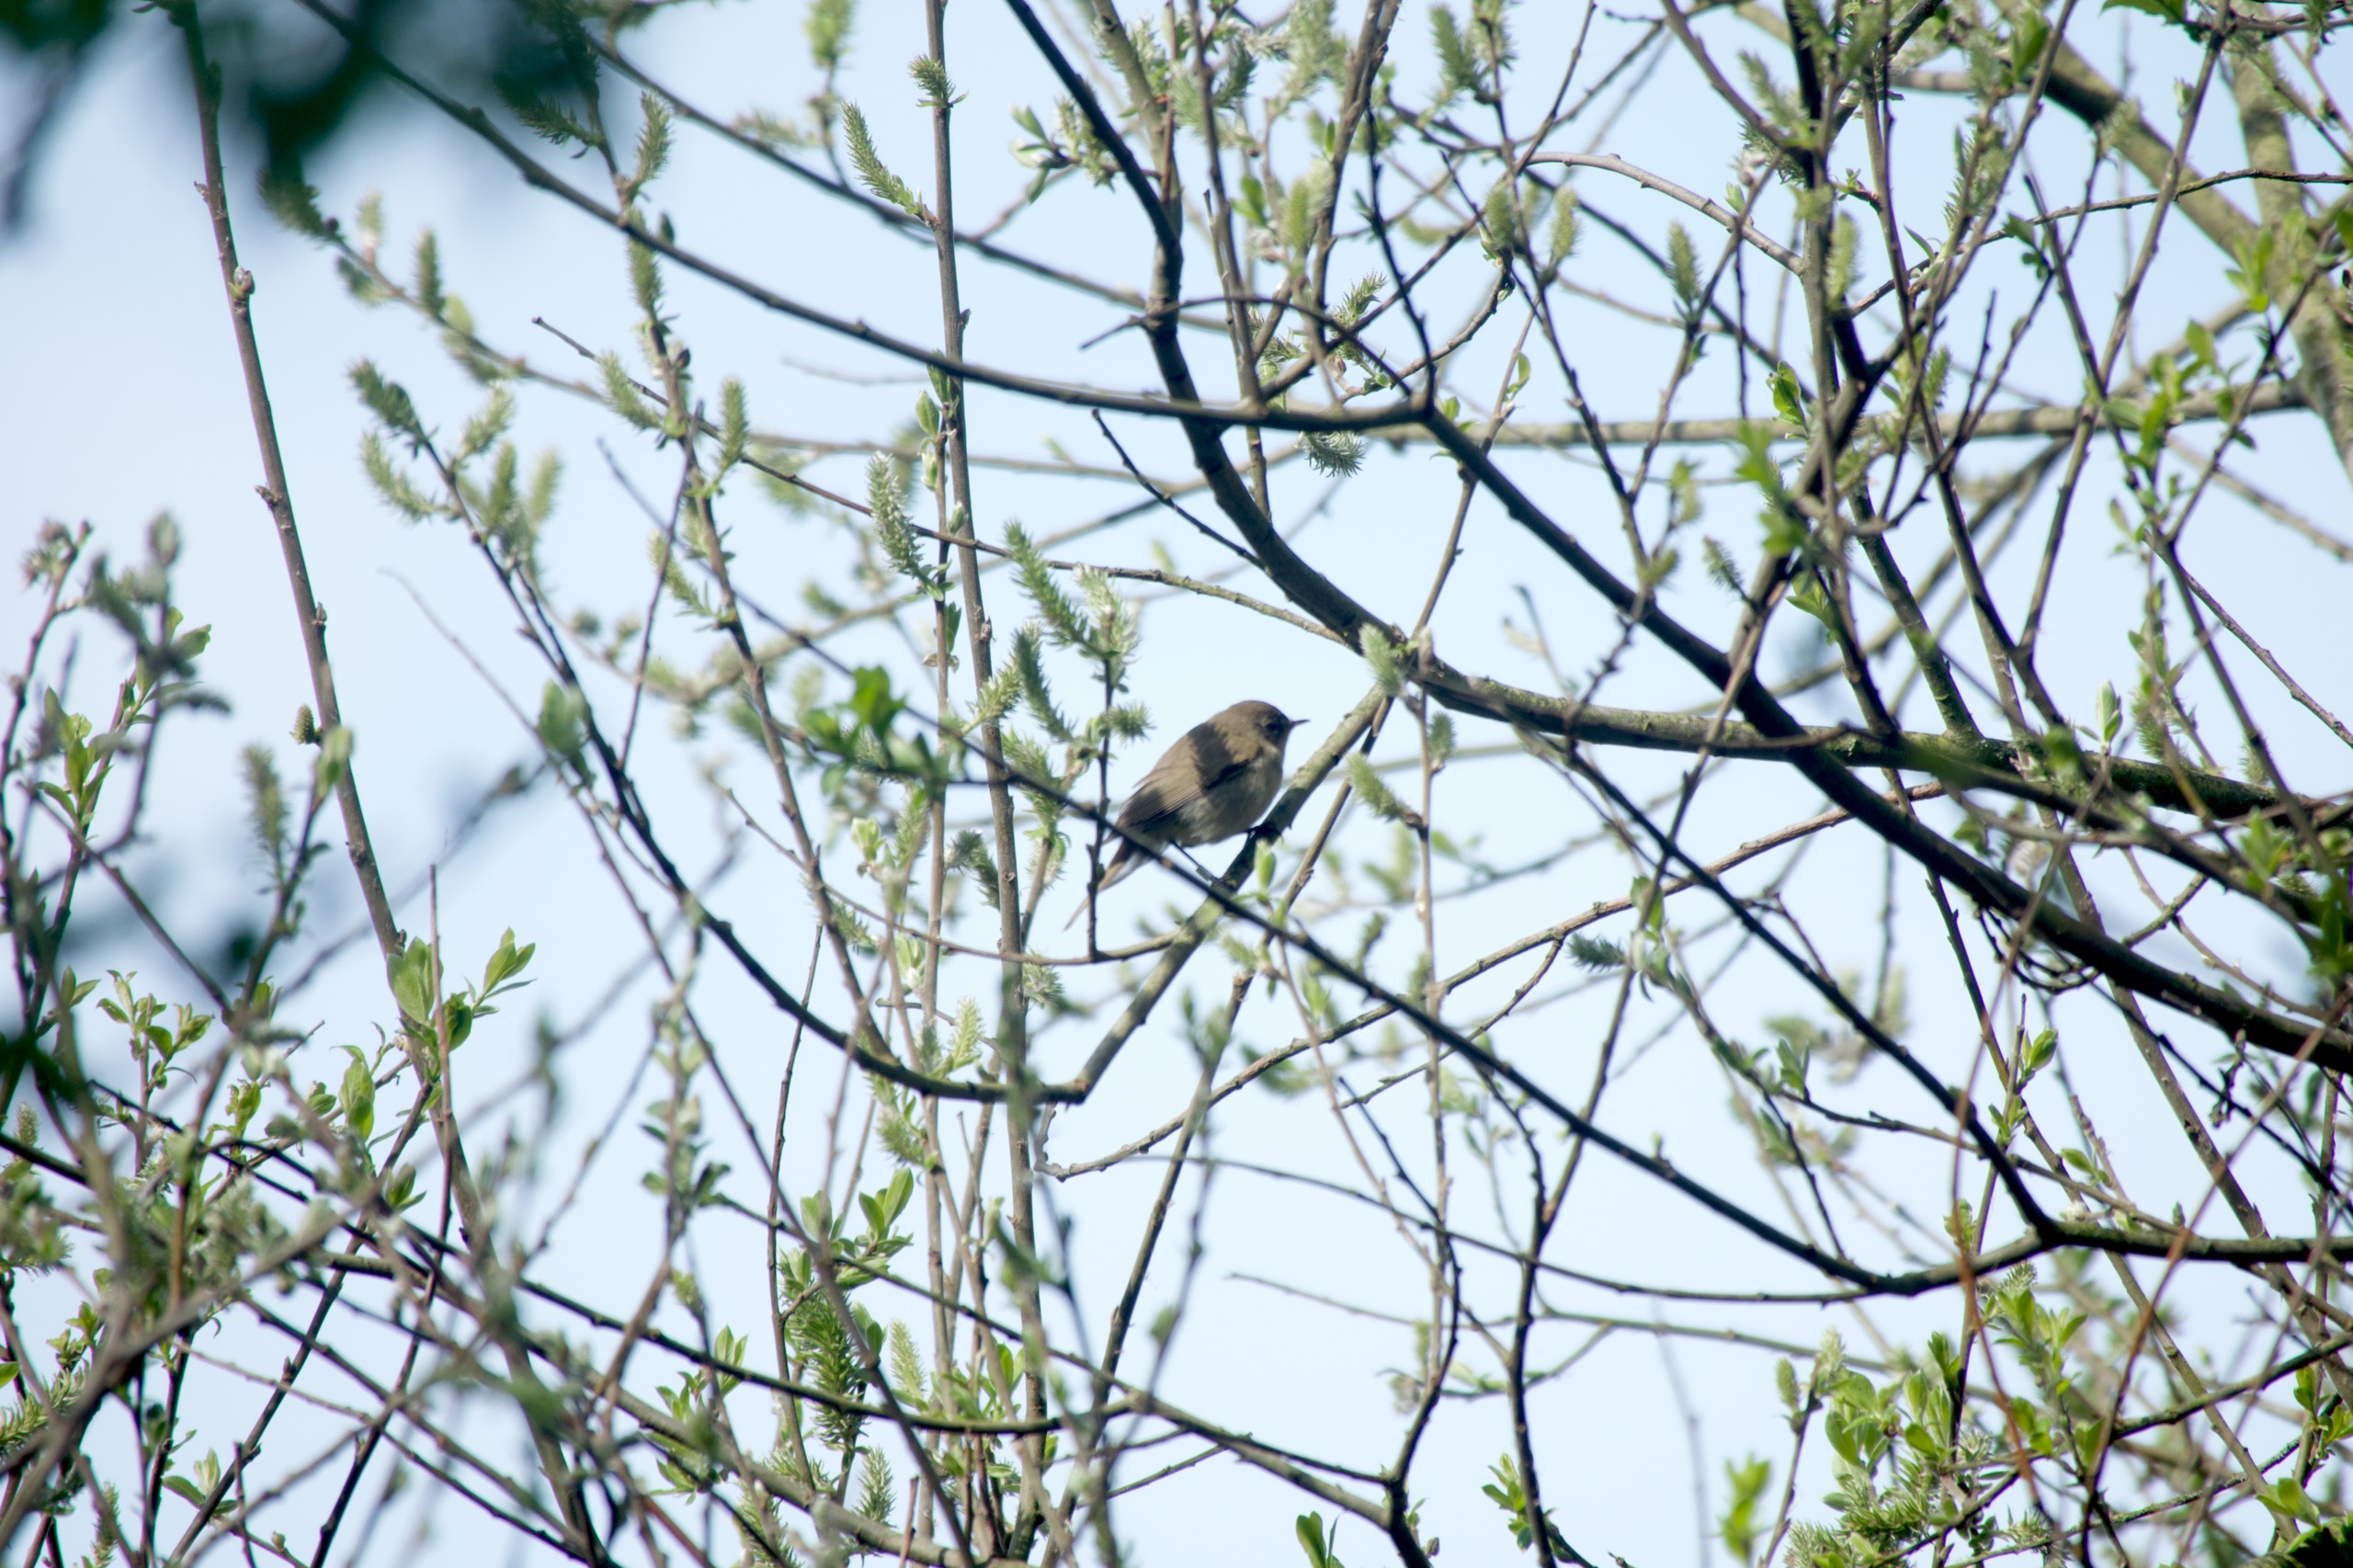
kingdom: Animalia
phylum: Chordata
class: Aves
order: Passeriformes
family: Phylloscopidae
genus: Phylloscopus
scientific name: Phylloscopus collybita
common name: Gransanger
